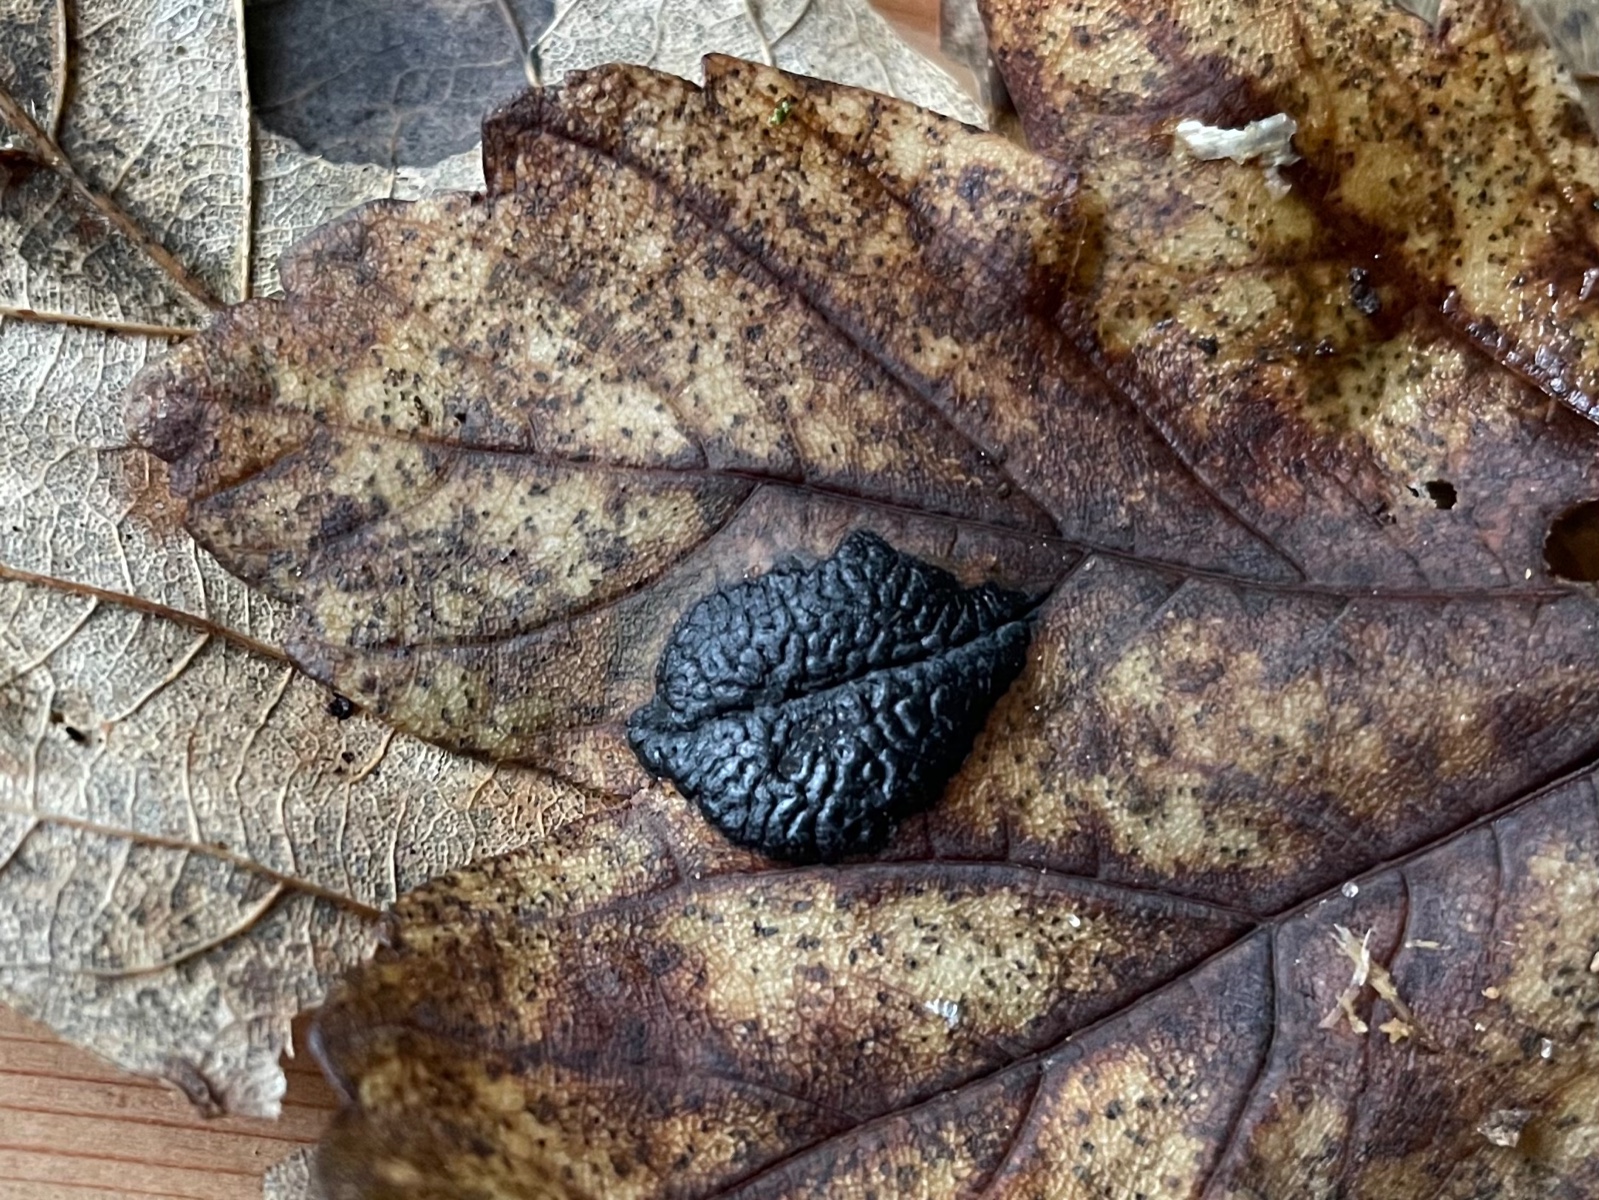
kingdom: Fungi
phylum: Ascomycota
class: Leotiomycetes
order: Rhytismatales
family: Rhytismataceae
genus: Rhytisma
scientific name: Rhytisma acerinum
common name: ahorn-rynkeplet
